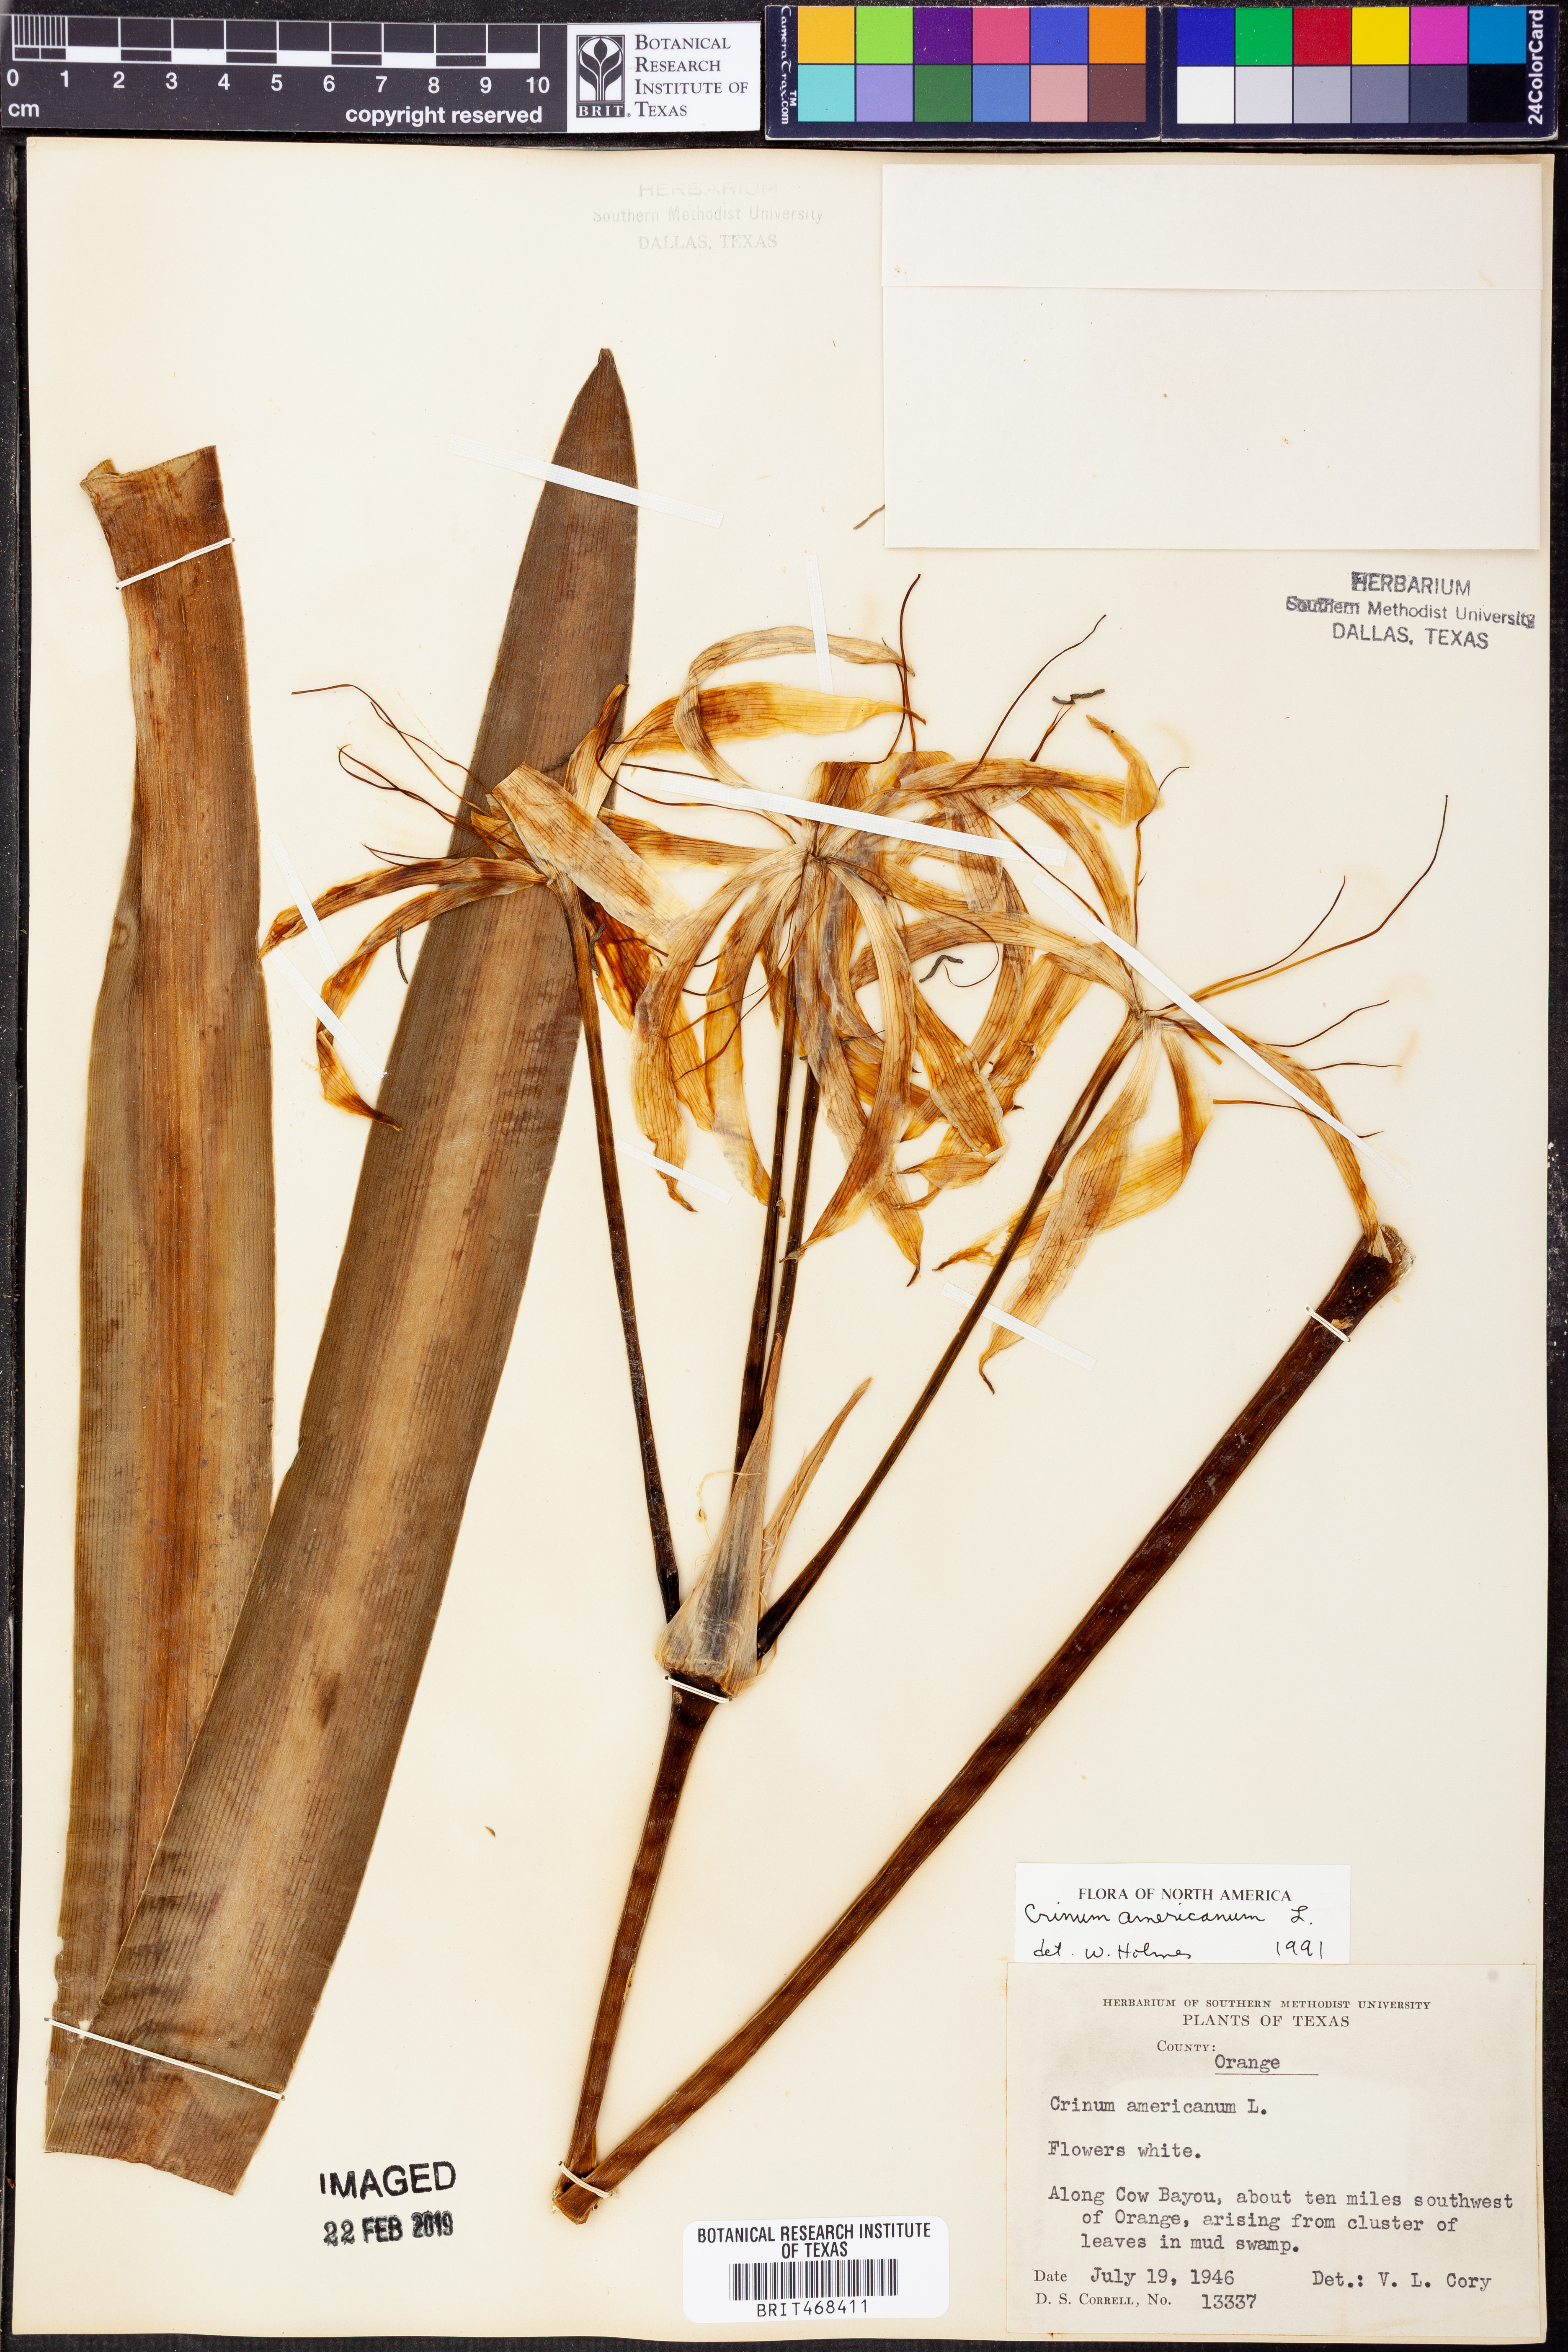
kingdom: Plantae
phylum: Tracheophyta
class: Liliopsida
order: Asparagales
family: Amaryllidaceae
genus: Crinum
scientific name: Crinum americanum
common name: Florida swamp-lily
